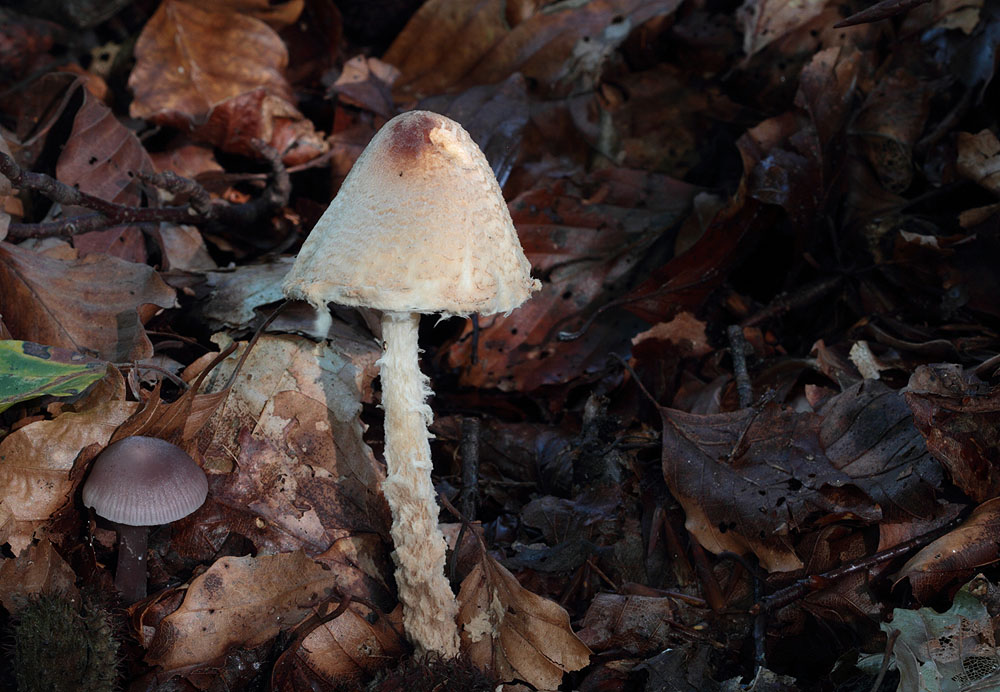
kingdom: Fungi
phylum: Basidiomycota
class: Agaricomycetes
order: Agaricales
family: Agaricaceae
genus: Lepiota
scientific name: Lepiota magnispora
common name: gulfnugget parasolhat
